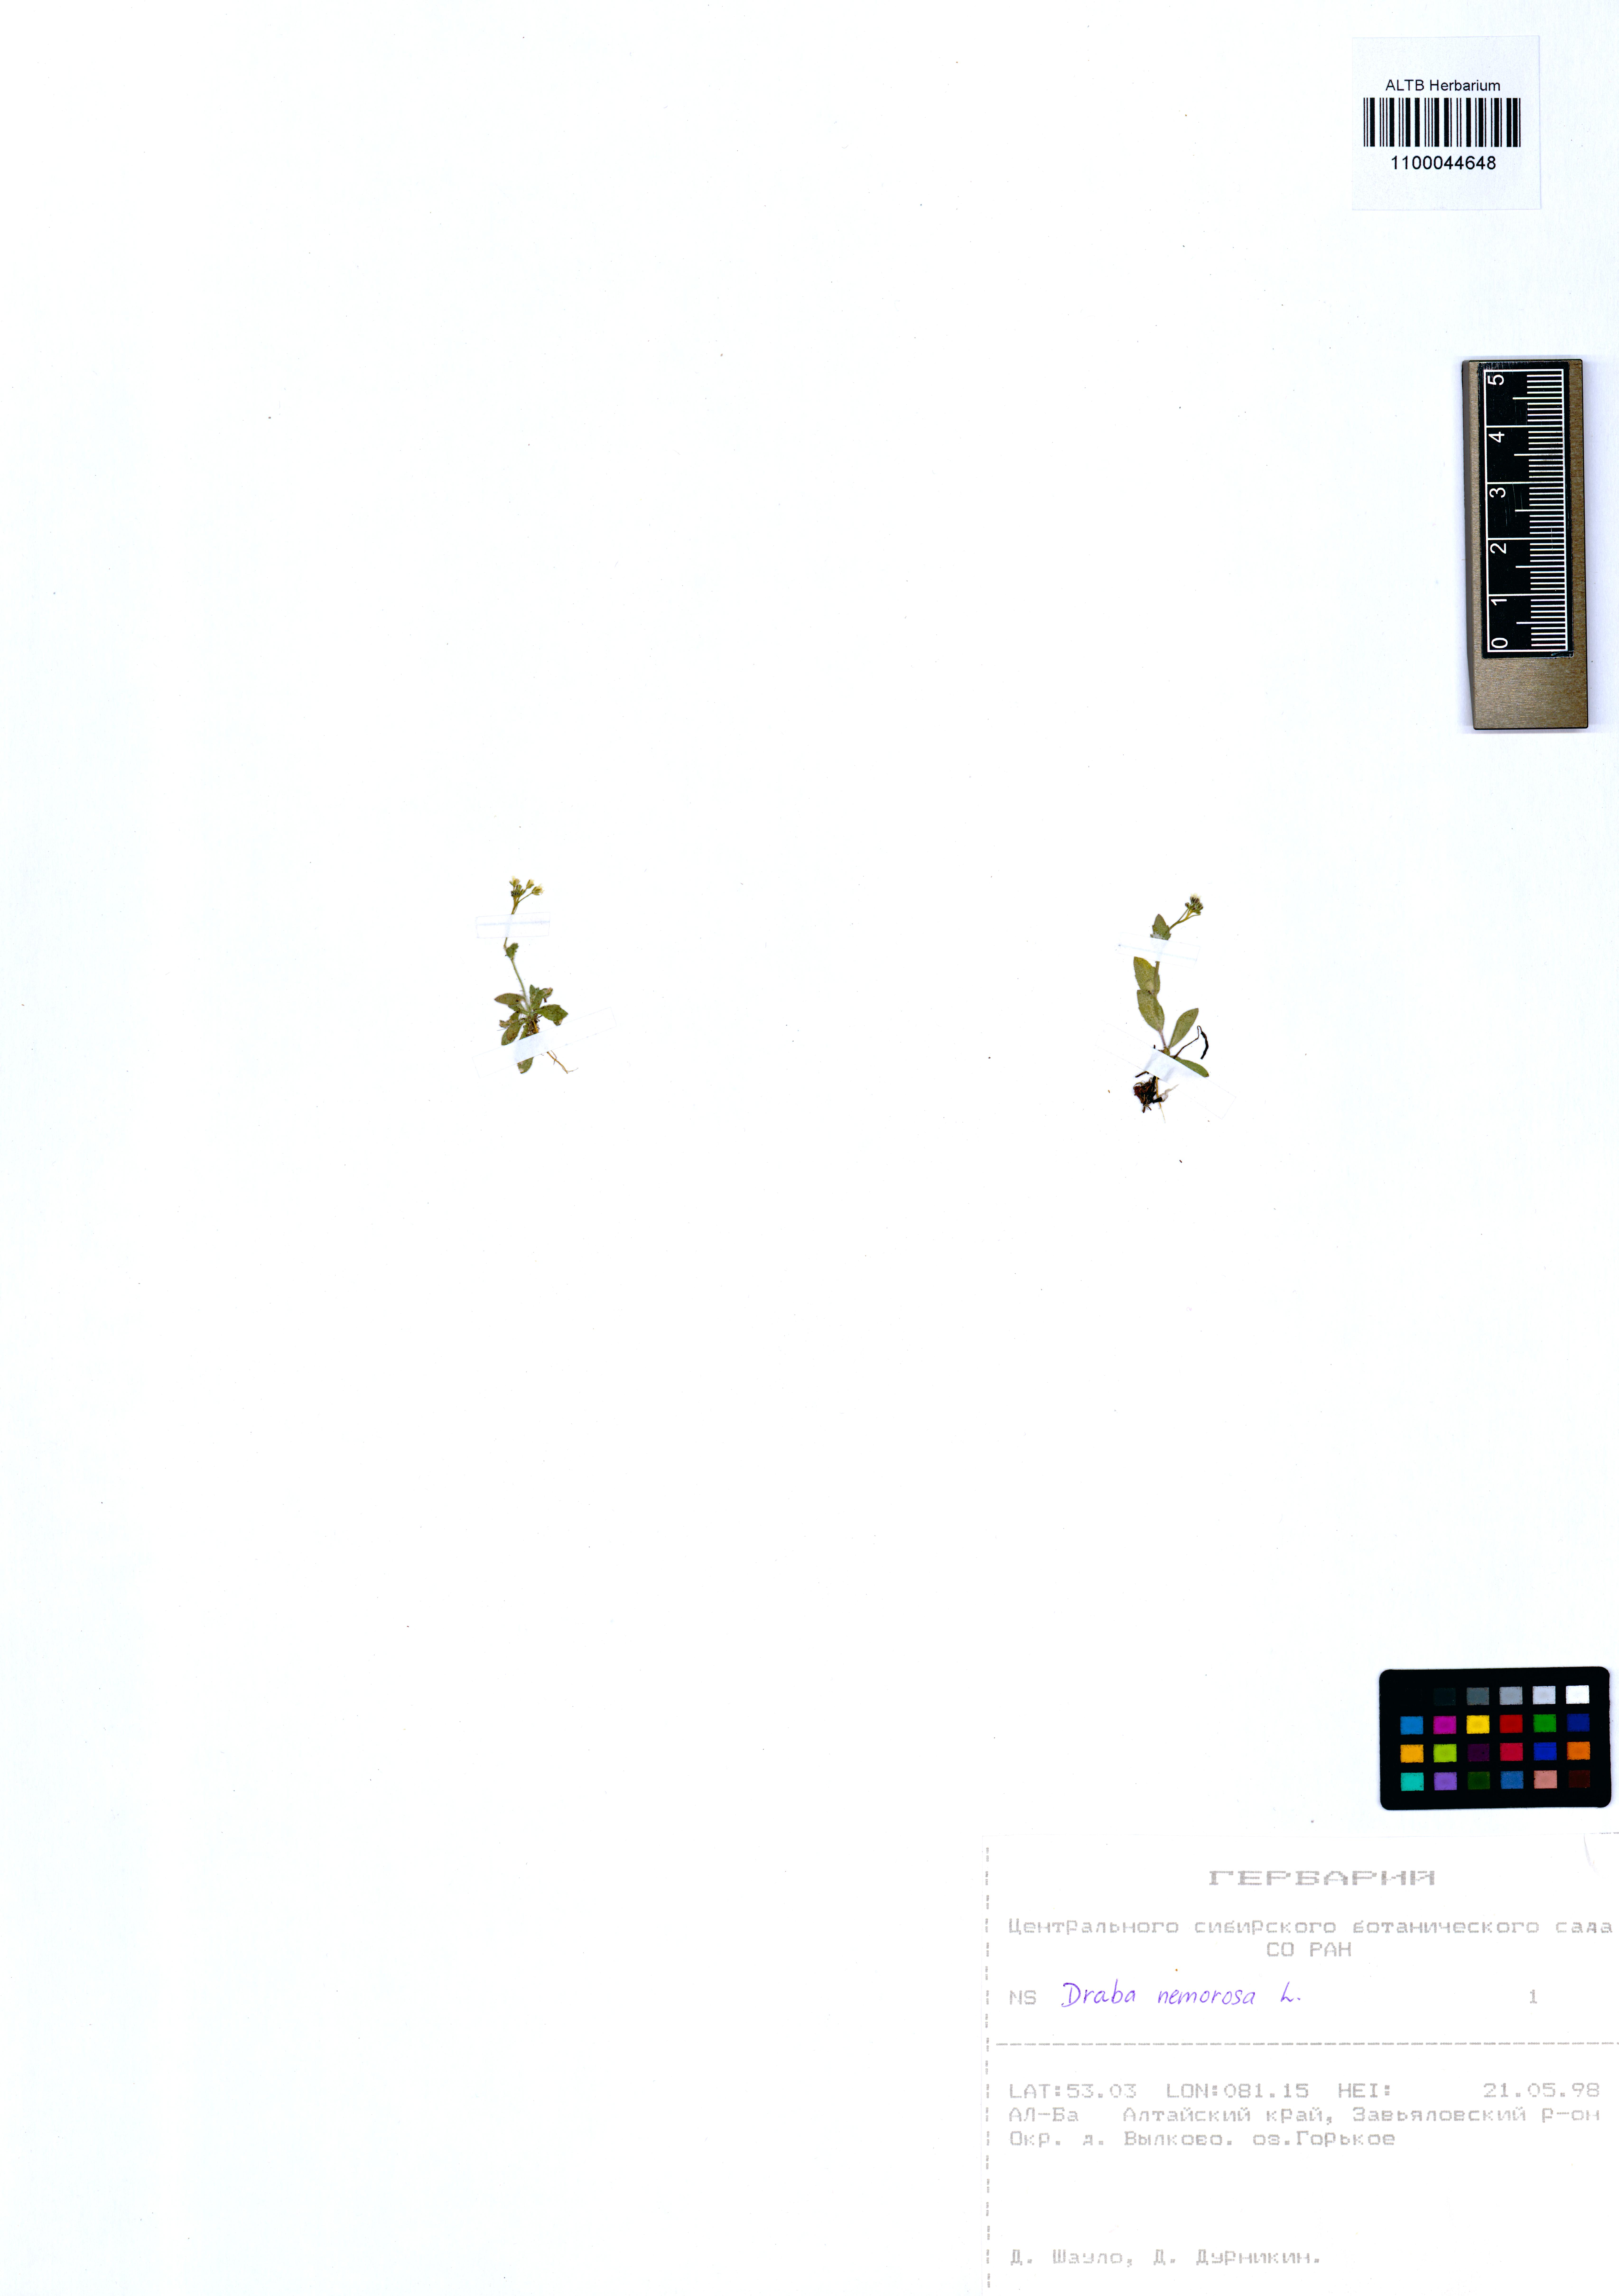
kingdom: Plantae
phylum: Tracheophyta
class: Magnoliopsida
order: Brassicales
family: Brassicaceae
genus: Draba
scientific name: Draba nemorosa
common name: Wood whitlow-grass
